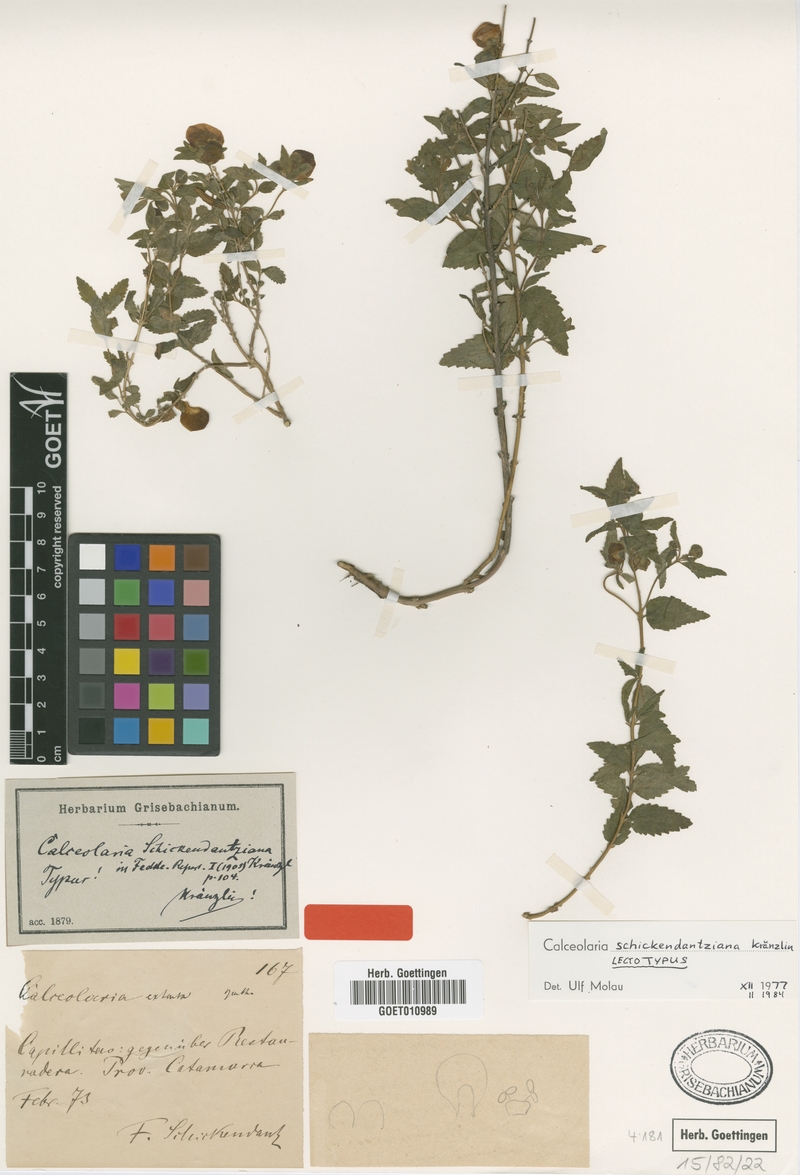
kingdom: Plantae
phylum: Tracheophyta
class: Magnoliopsida
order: Lamiales
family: Calceolariaceae
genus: Calceolaria
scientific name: Calceolaria schickendantziana
